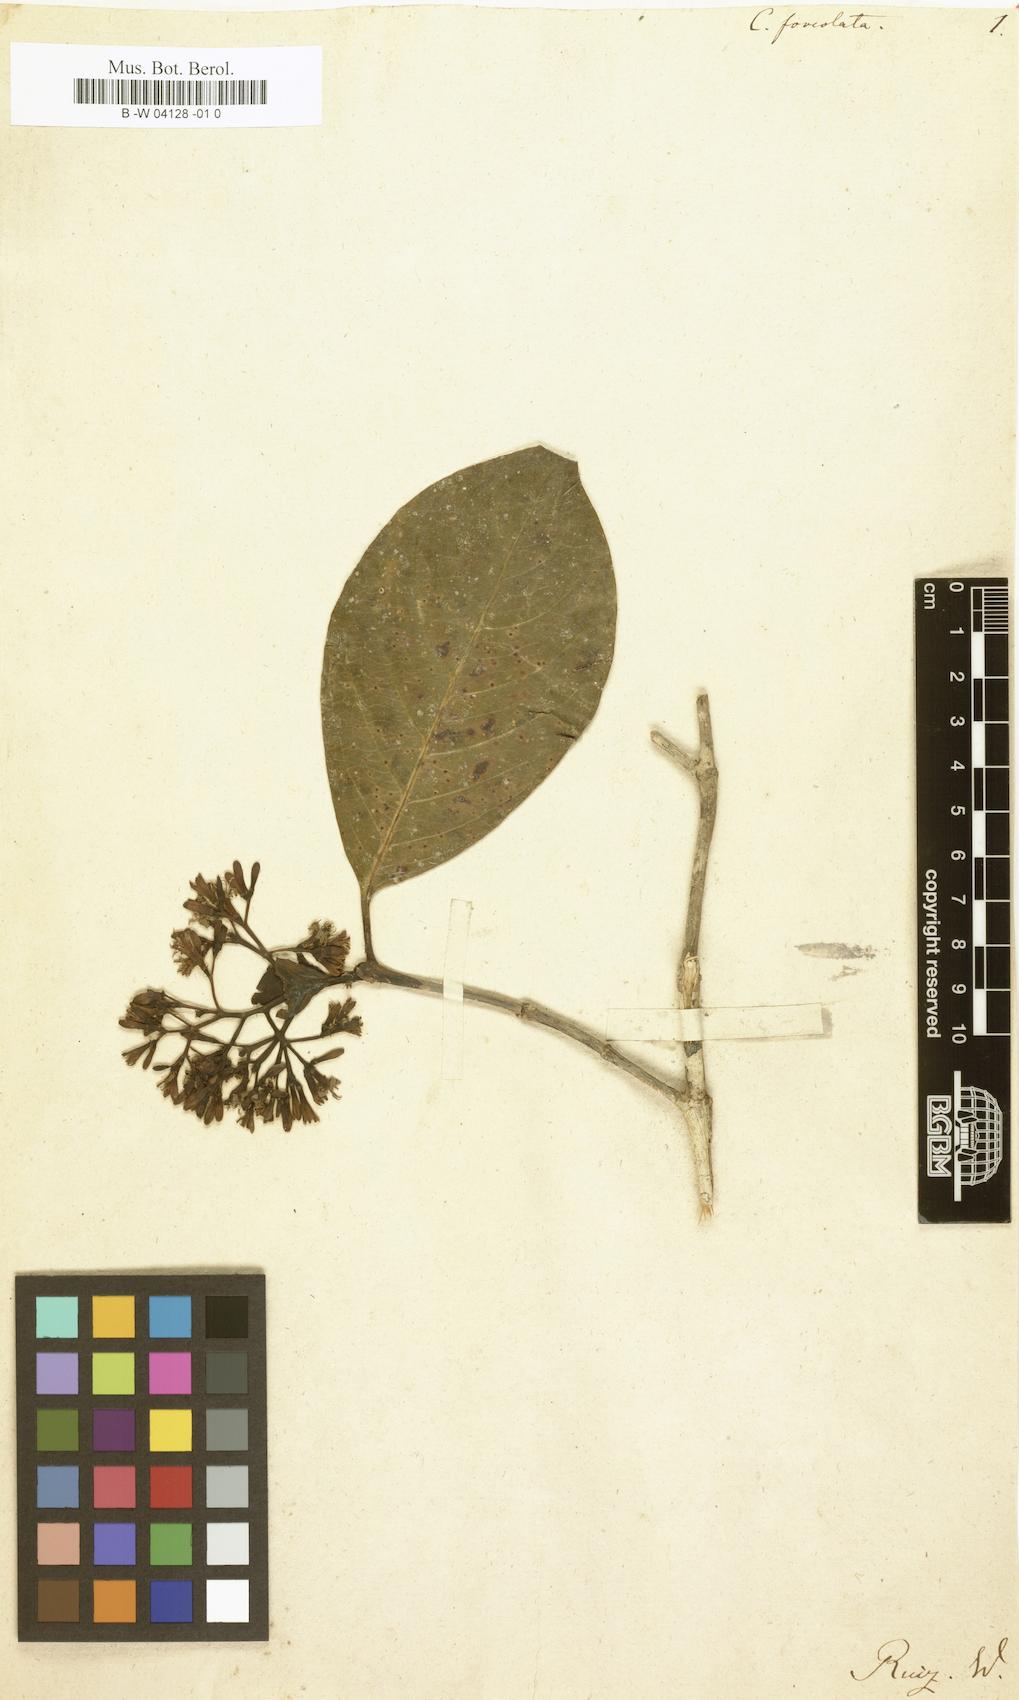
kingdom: Plantae
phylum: Tracheophyta
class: Magnoliopsida
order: Gentianales
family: Rubiaceae
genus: Rudgea
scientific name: Rudgea foveolata
